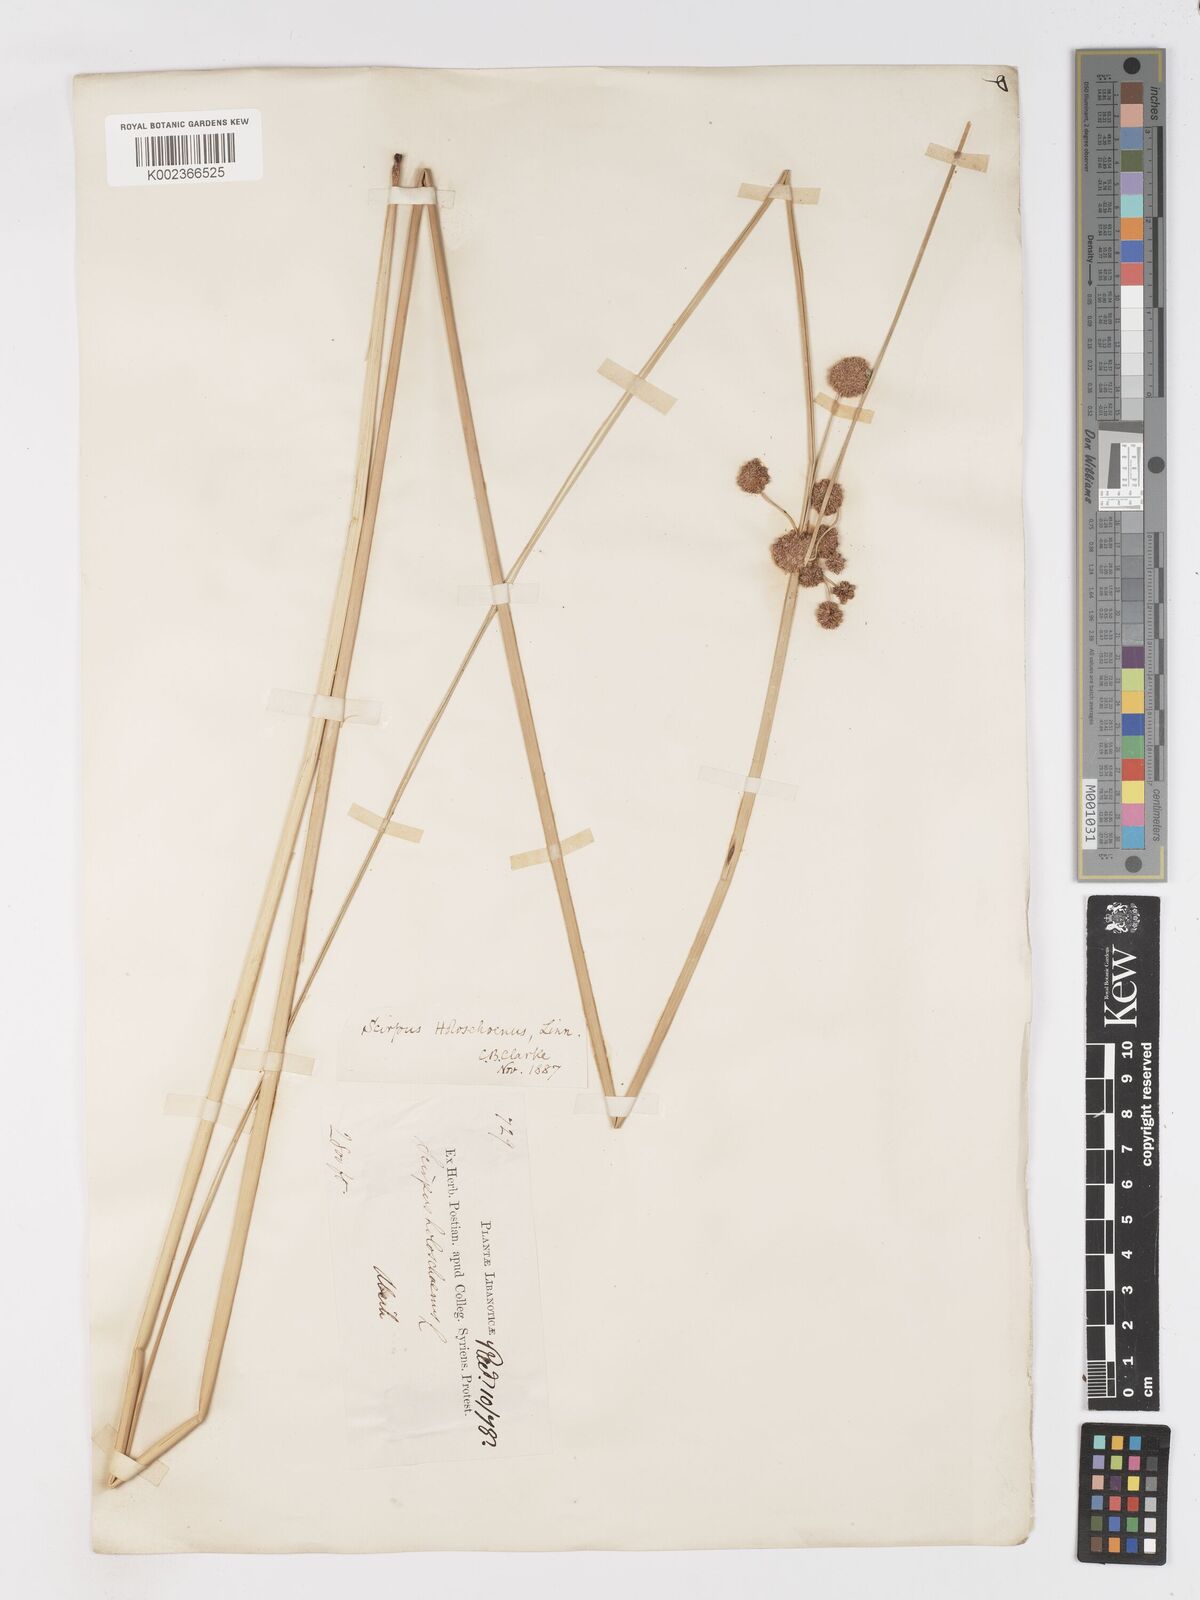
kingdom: Plantae
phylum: Tracheophyta
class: Liliopsida
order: Poales
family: Cyperaceae
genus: Scirpoides
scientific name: Scirpoides holoschoenus
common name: Round-headed club-rush
